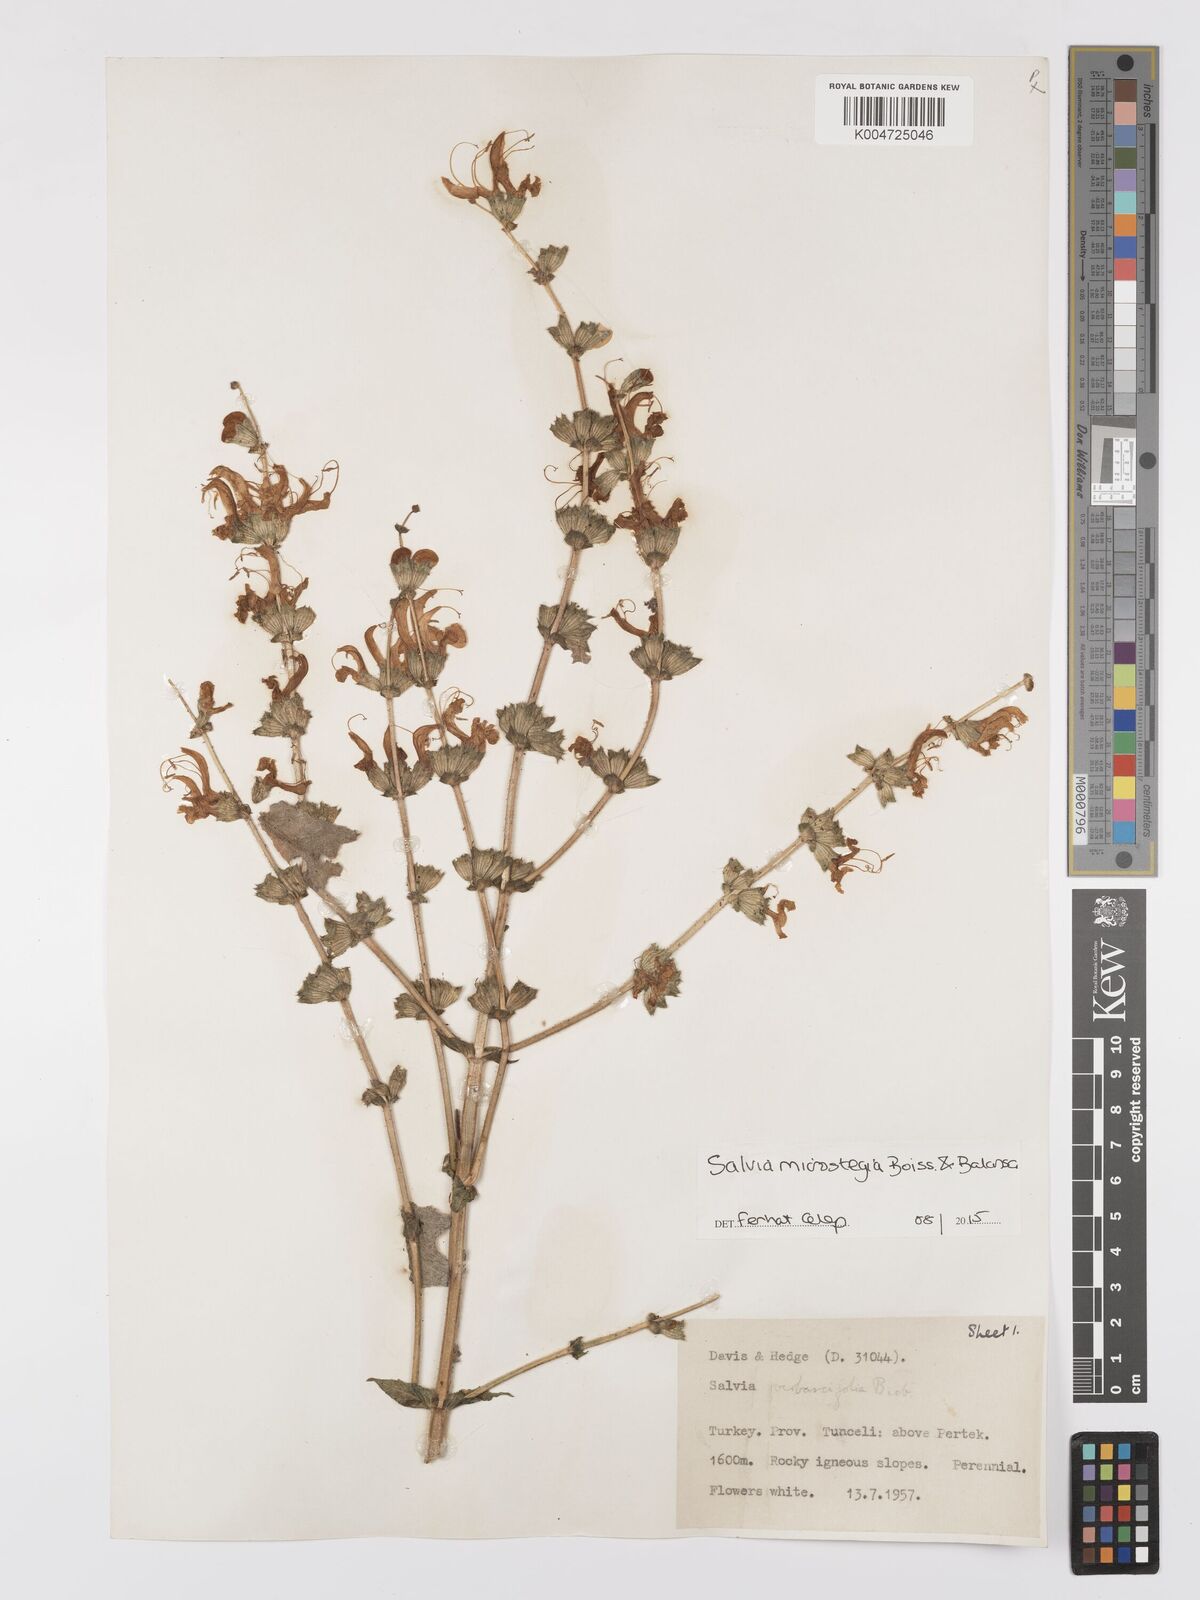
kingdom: Plantae
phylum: Tracheophyta
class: Magnoliopsida
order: Lamiales
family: Lamiaceae
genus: Salvia
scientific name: Salvia microstegia
